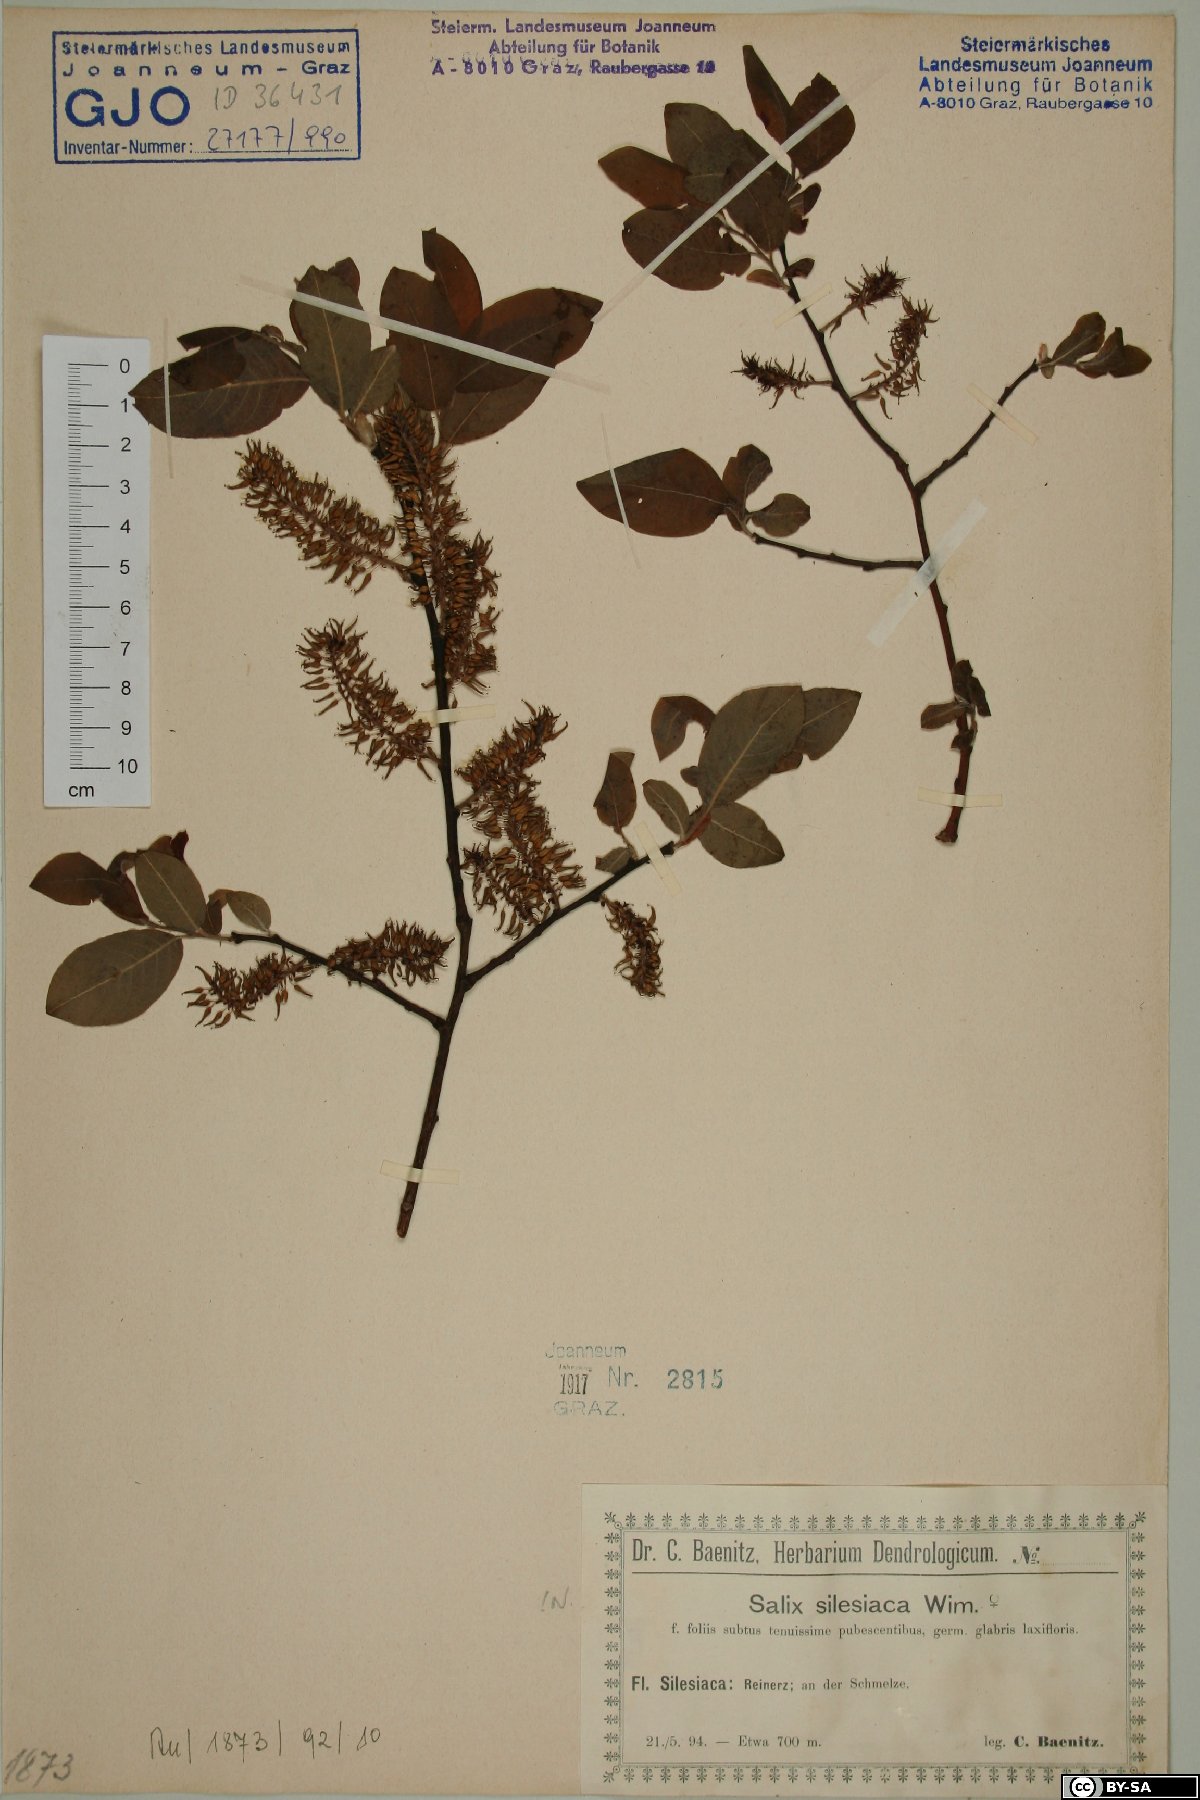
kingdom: Plantae
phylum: Tracheophyta
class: Magnoliopsida
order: Malpighiales
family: Salicaceae
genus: Salix
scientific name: Salix silesiaca
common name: Silesian willow
